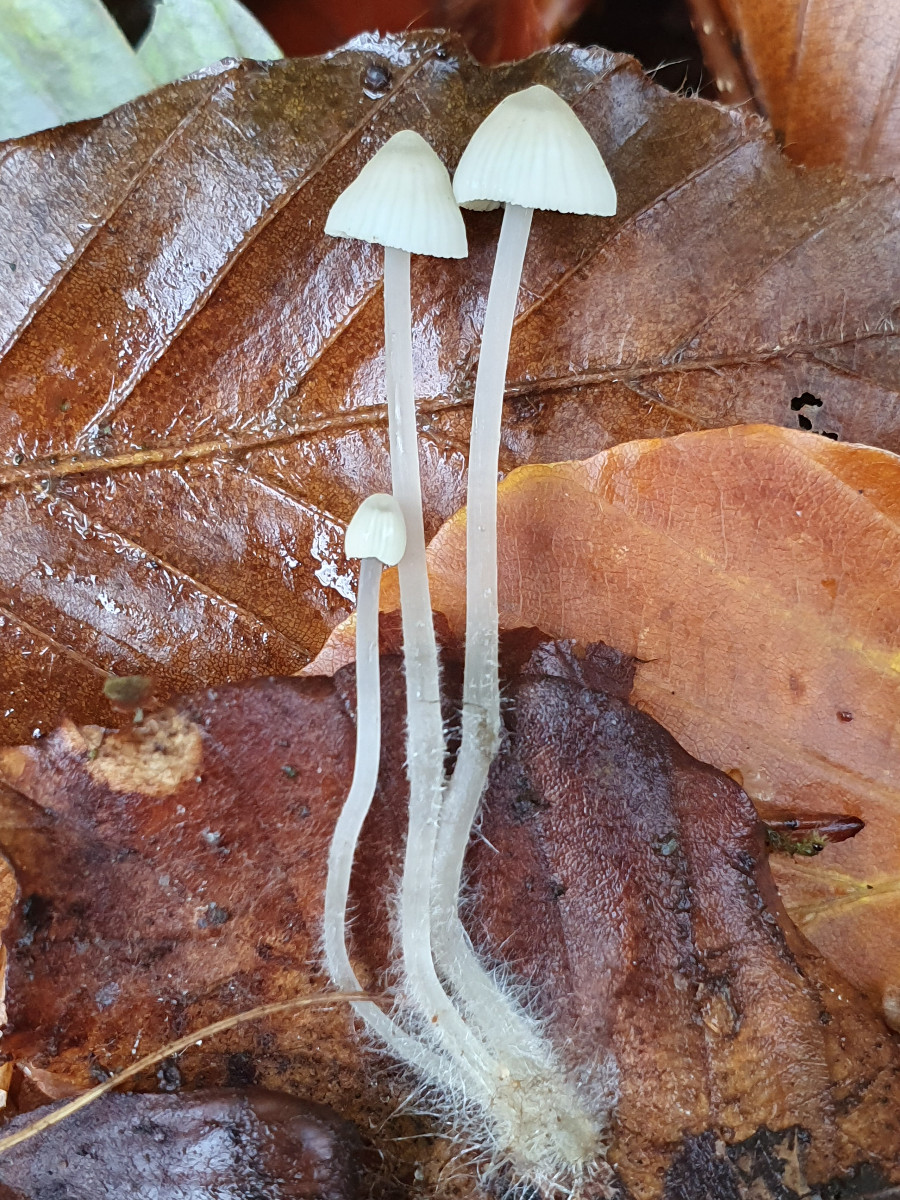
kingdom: Fungi
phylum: Basidiomycota
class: Agaricomycetes
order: Agaricales
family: Mycenaceae
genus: Mycena
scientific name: Mycena
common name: huesvamp
